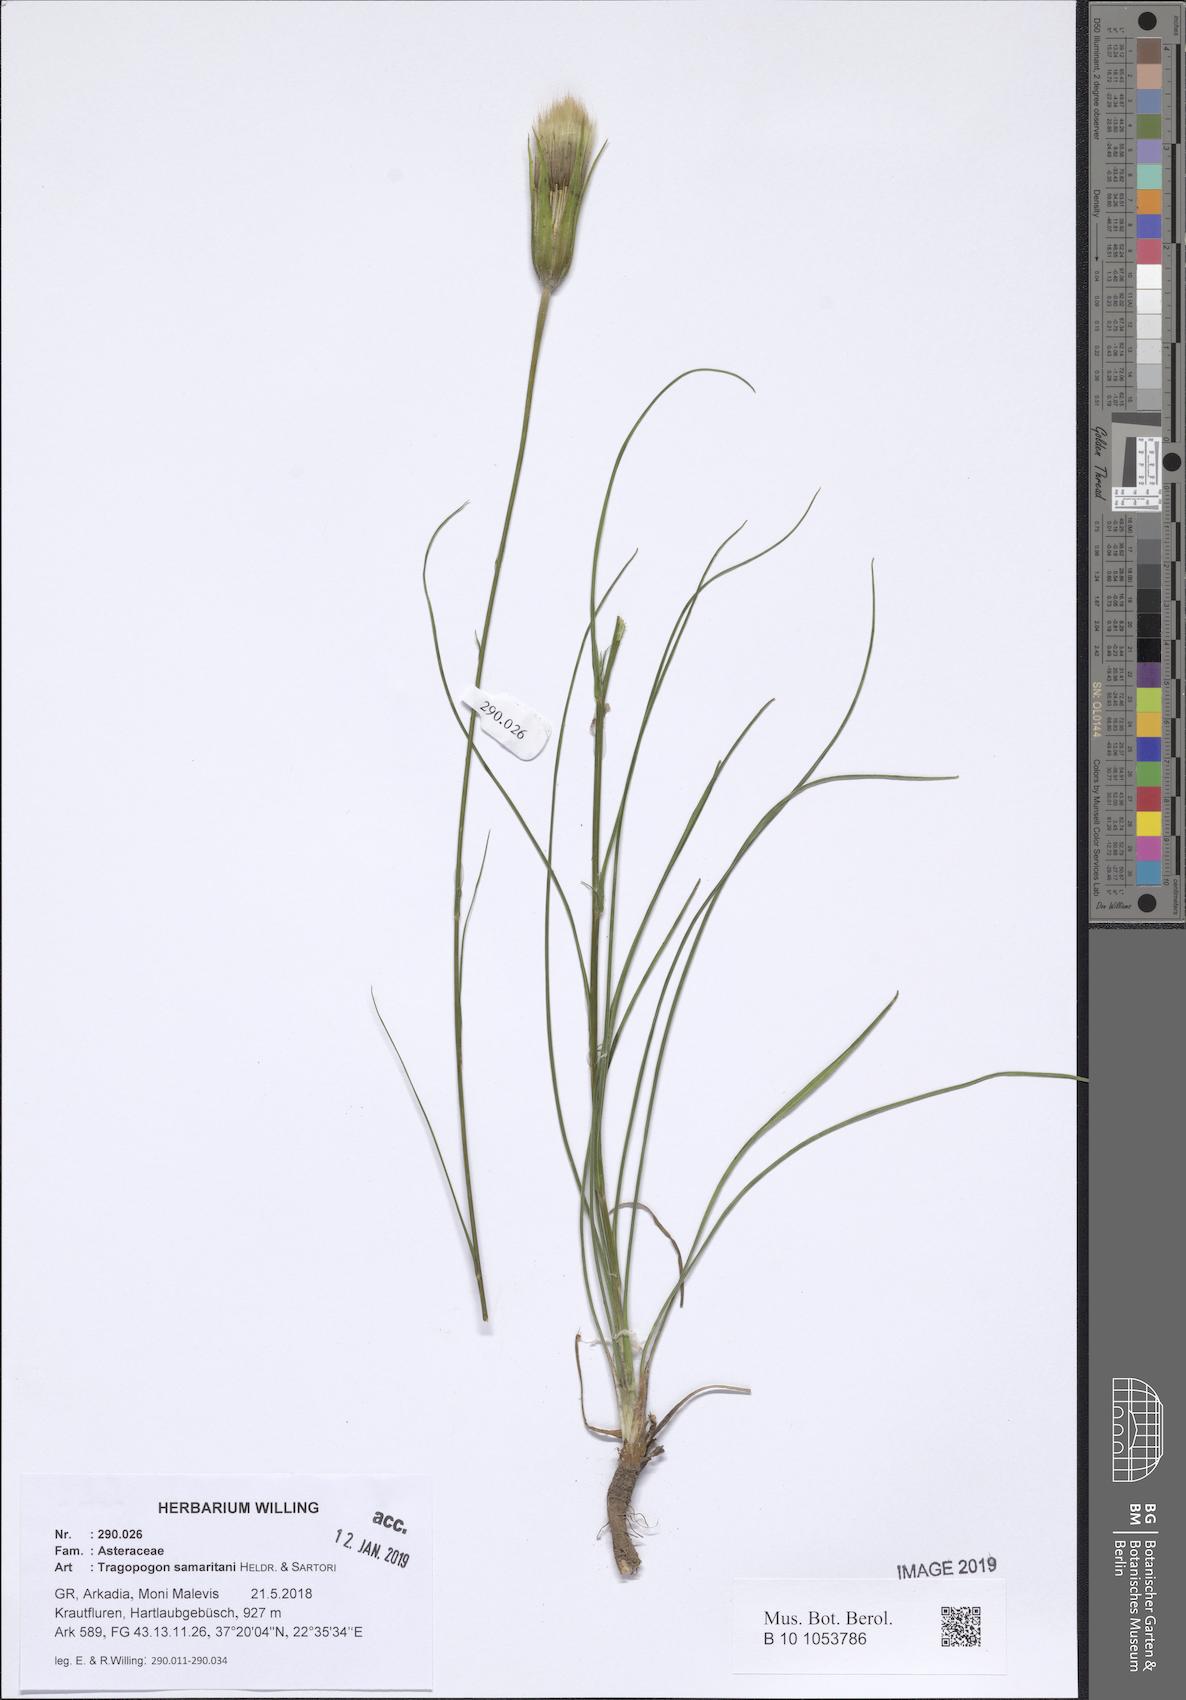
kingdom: Plantae
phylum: Tracheophyta
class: Magnoliopsida
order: Asterales
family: Asteraceae
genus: Tragopogon
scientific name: Tragopogon samaritani
